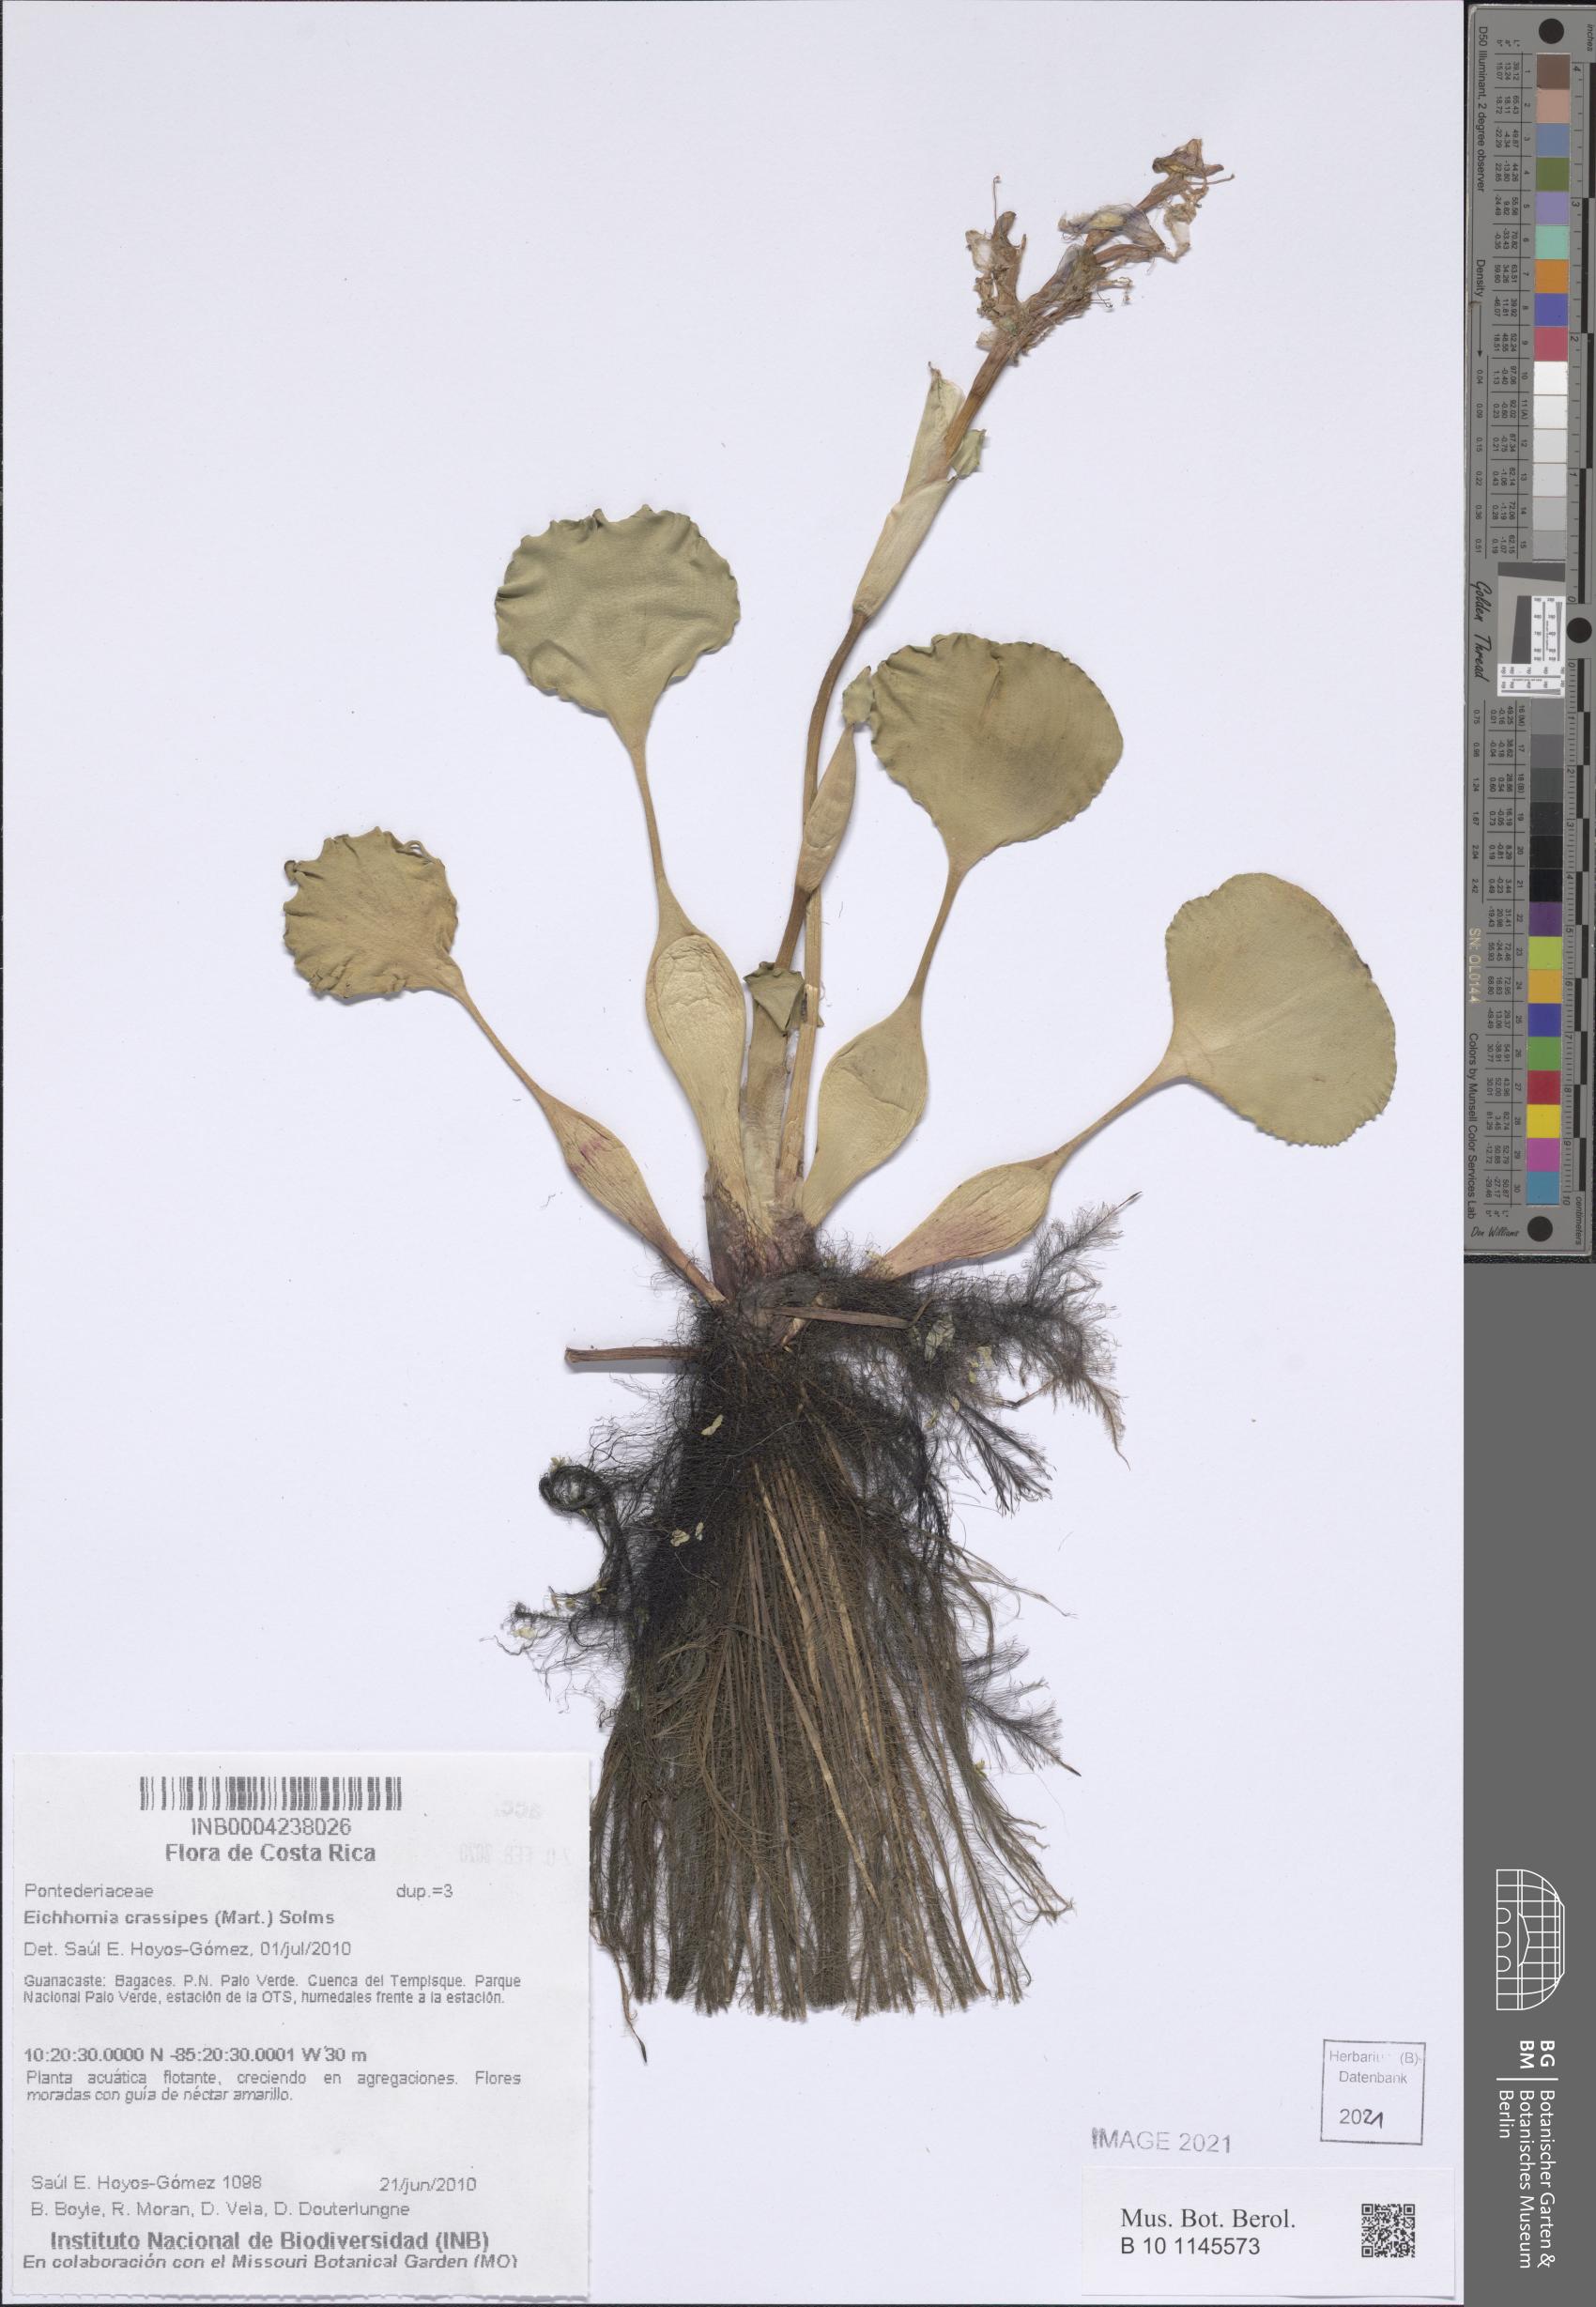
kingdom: Plantae
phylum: Tracheophyta
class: Liliopsida
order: Commelinales
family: Pontederiaceae
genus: Pontederia
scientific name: Pontederia crassipes
